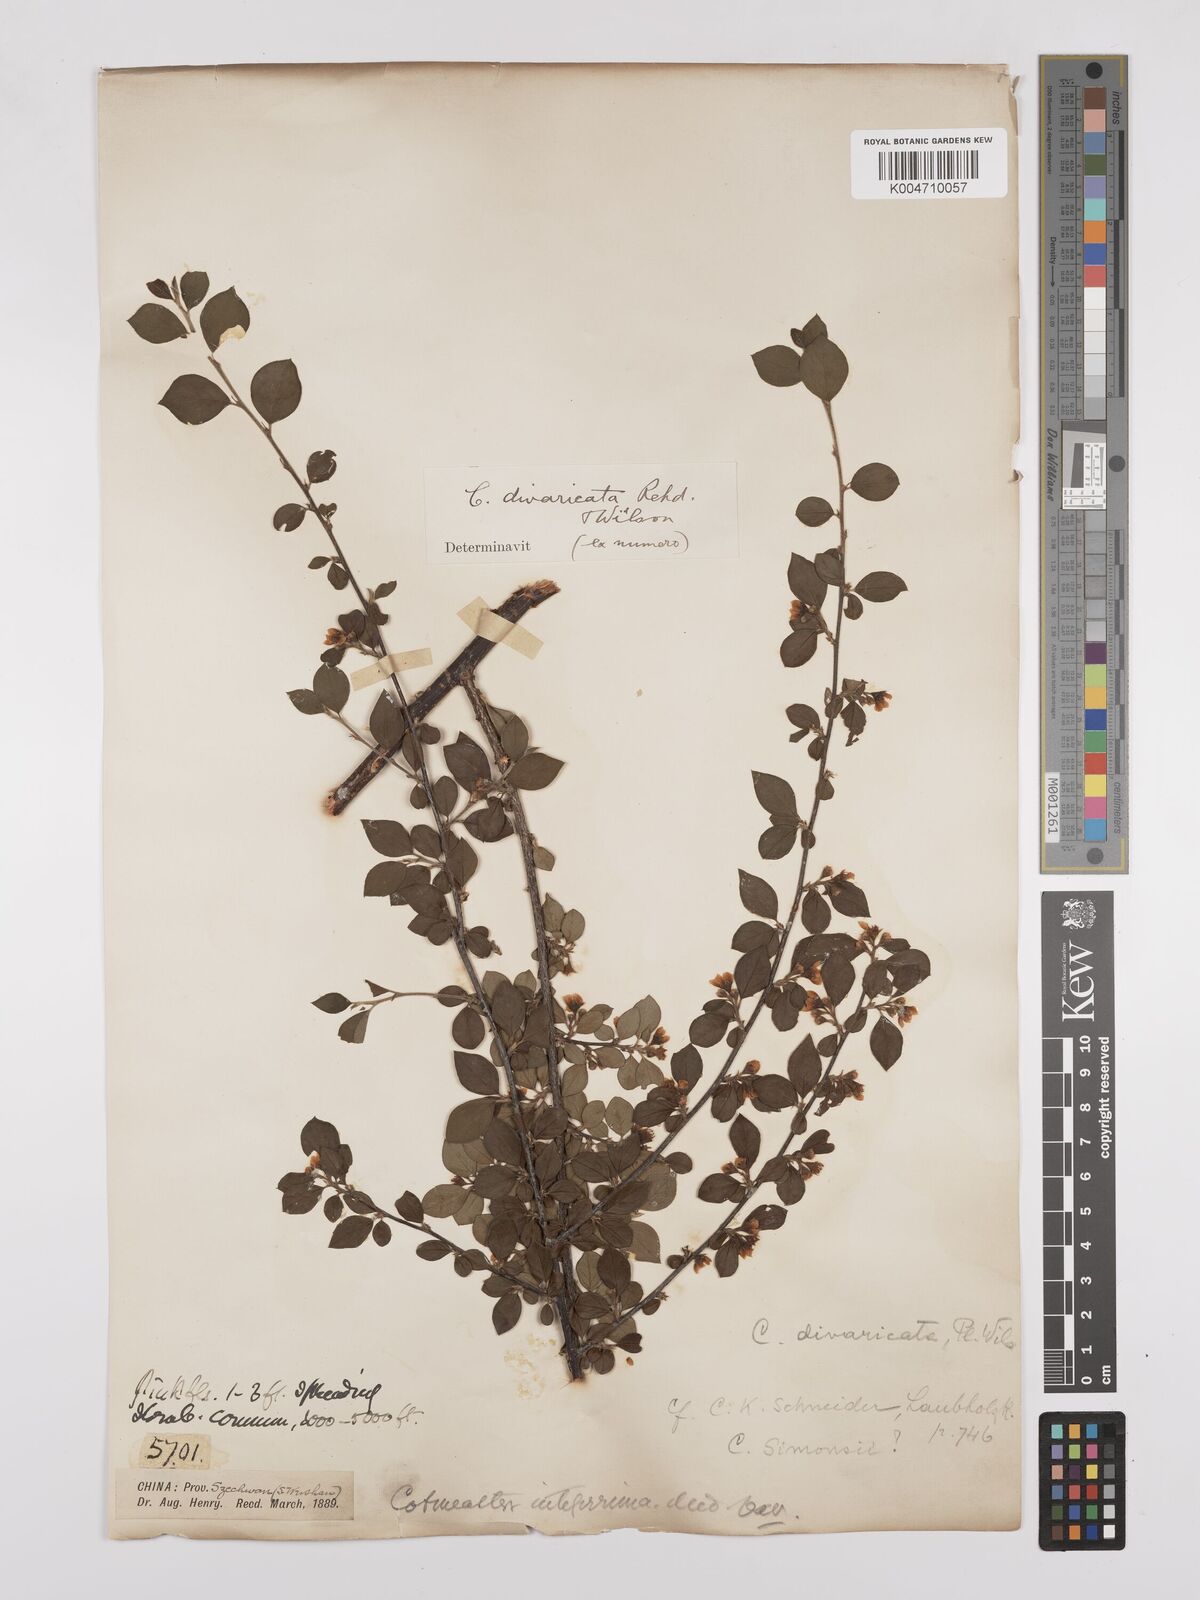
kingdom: Plantae
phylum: Tracheophyta
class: Magnoliopsida
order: Rosales
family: Rosaceae
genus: Cotoneaster
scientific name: Cotoneaster divaricatus
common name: Spreading cotoneaster
